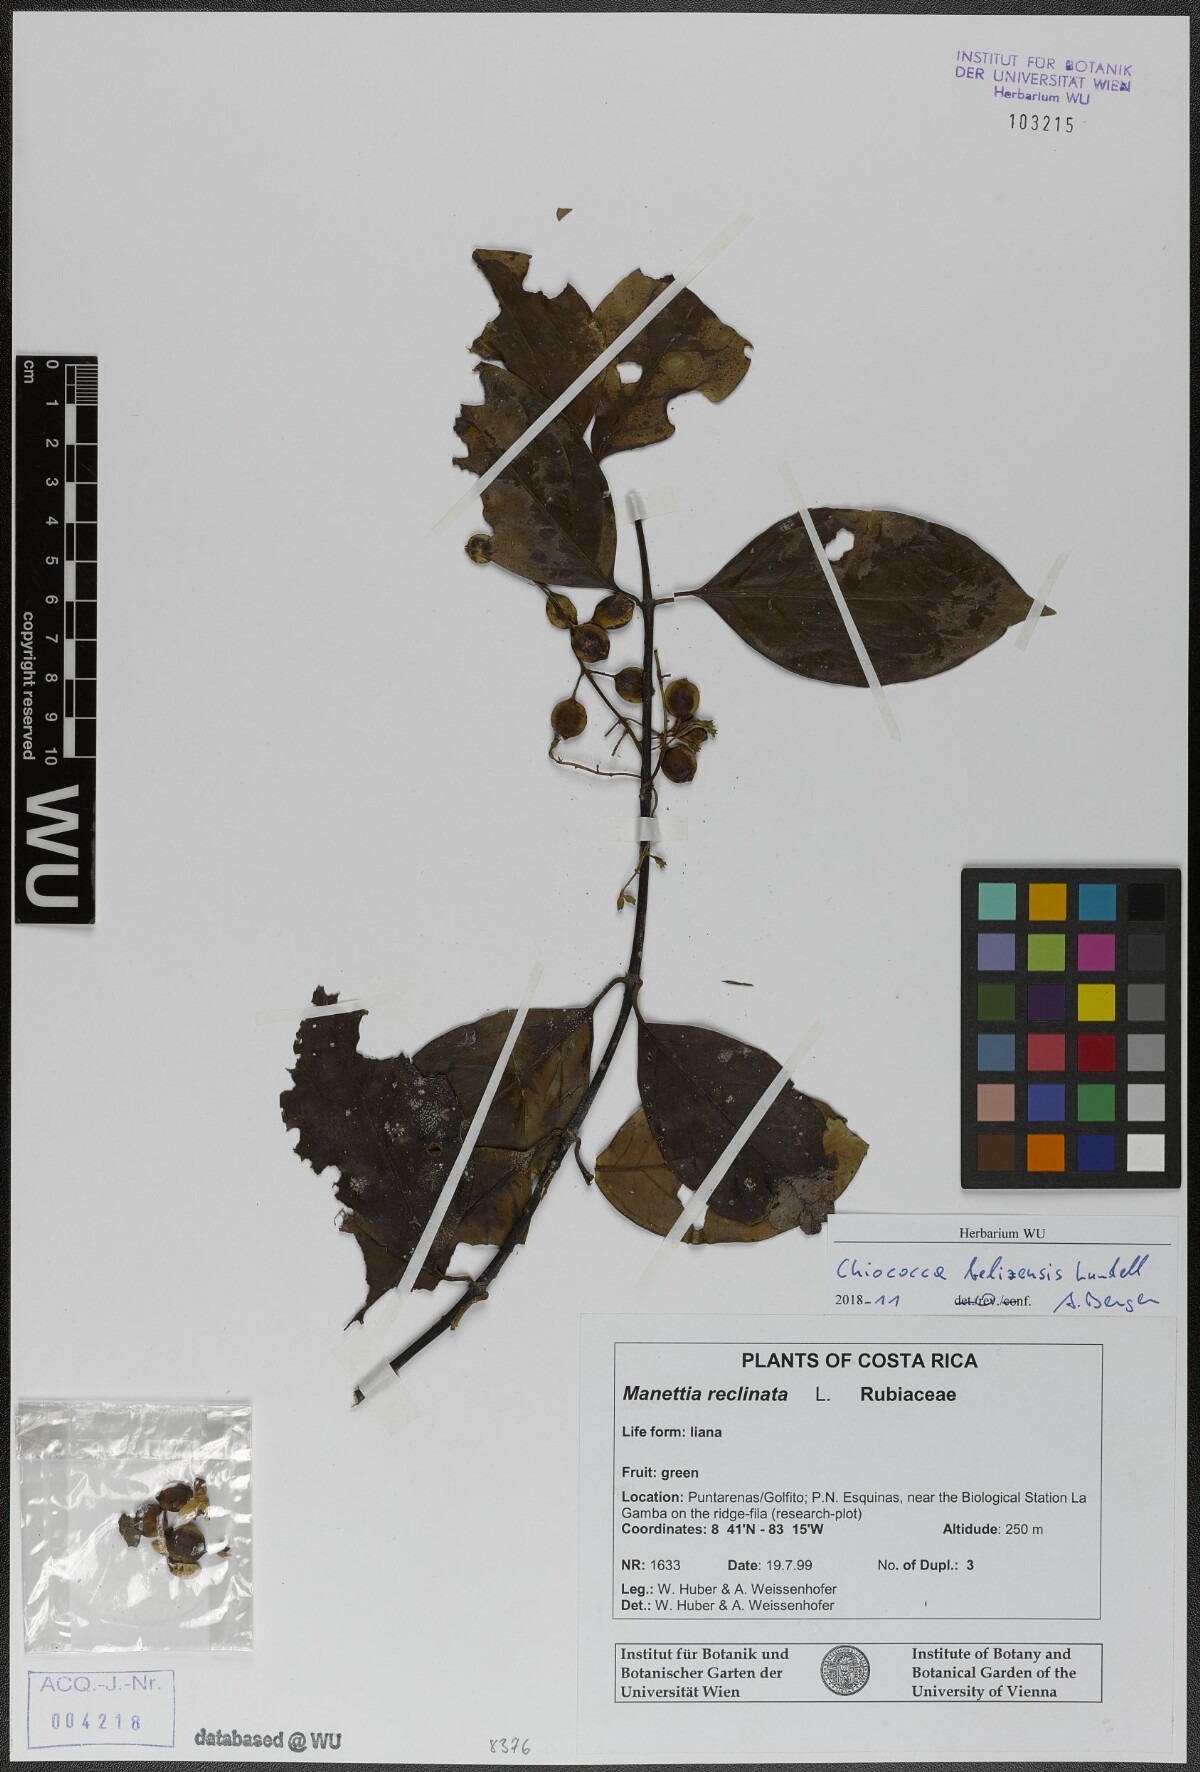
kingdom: Plantae
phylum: Tracheophyta
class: Magnoliopsida
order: Gentianales
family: Rubiaceae
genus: Chiococca
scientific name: Chiococca belizensis
